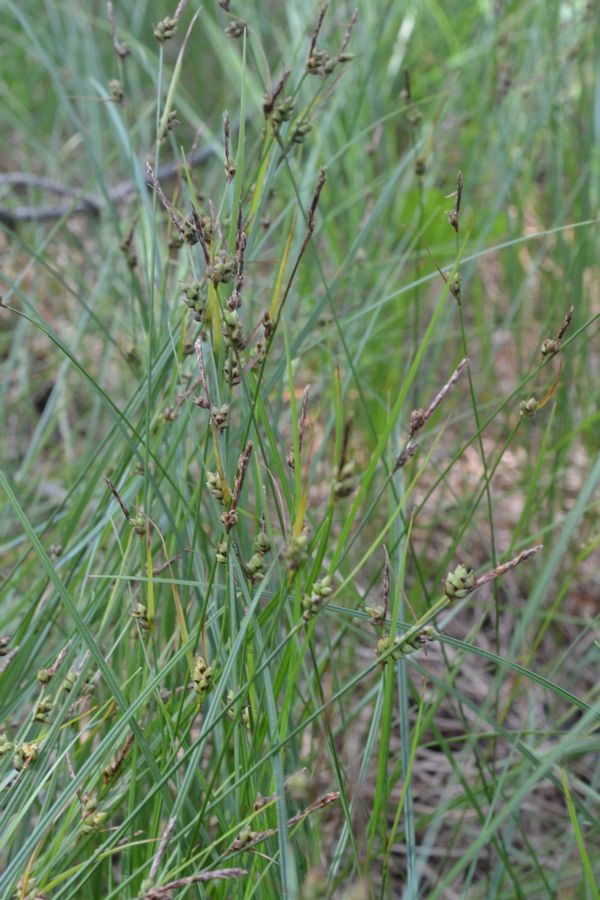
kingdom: Plantae
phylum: Tracheophyta
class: Liliopsida
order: Poales
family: Cyperaceae
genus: Carex
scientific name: Carex globularis
